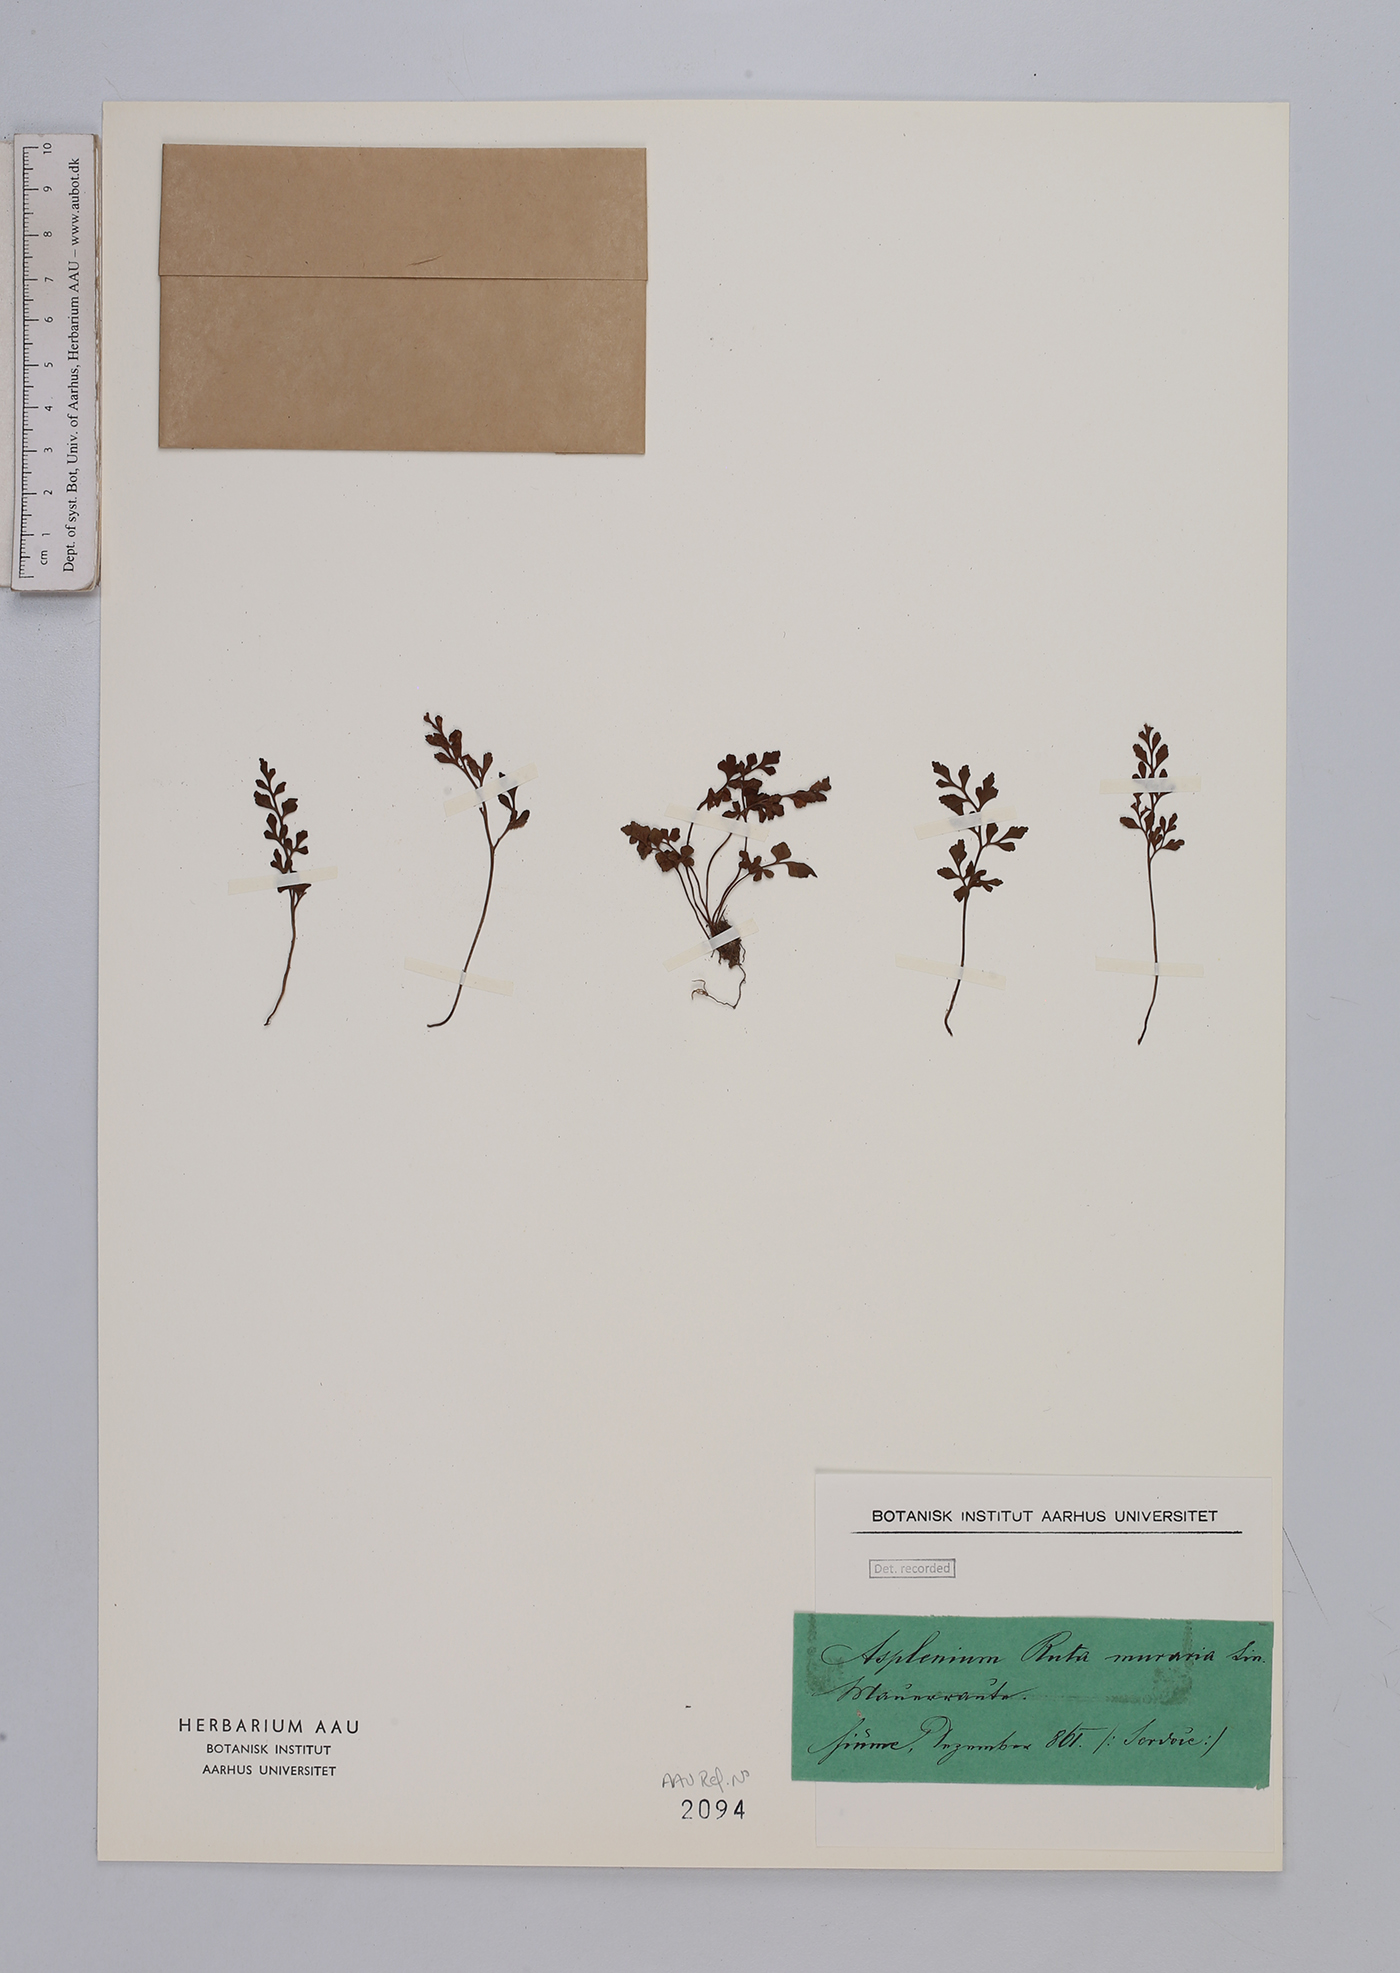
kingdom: Plantae
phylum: Tracheophyta
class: Polypodiopsida
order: Polypodiales
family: Aspleniaceae
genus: Asplenium
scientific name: Asplenium ruta-muraria
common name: Wall-rue
